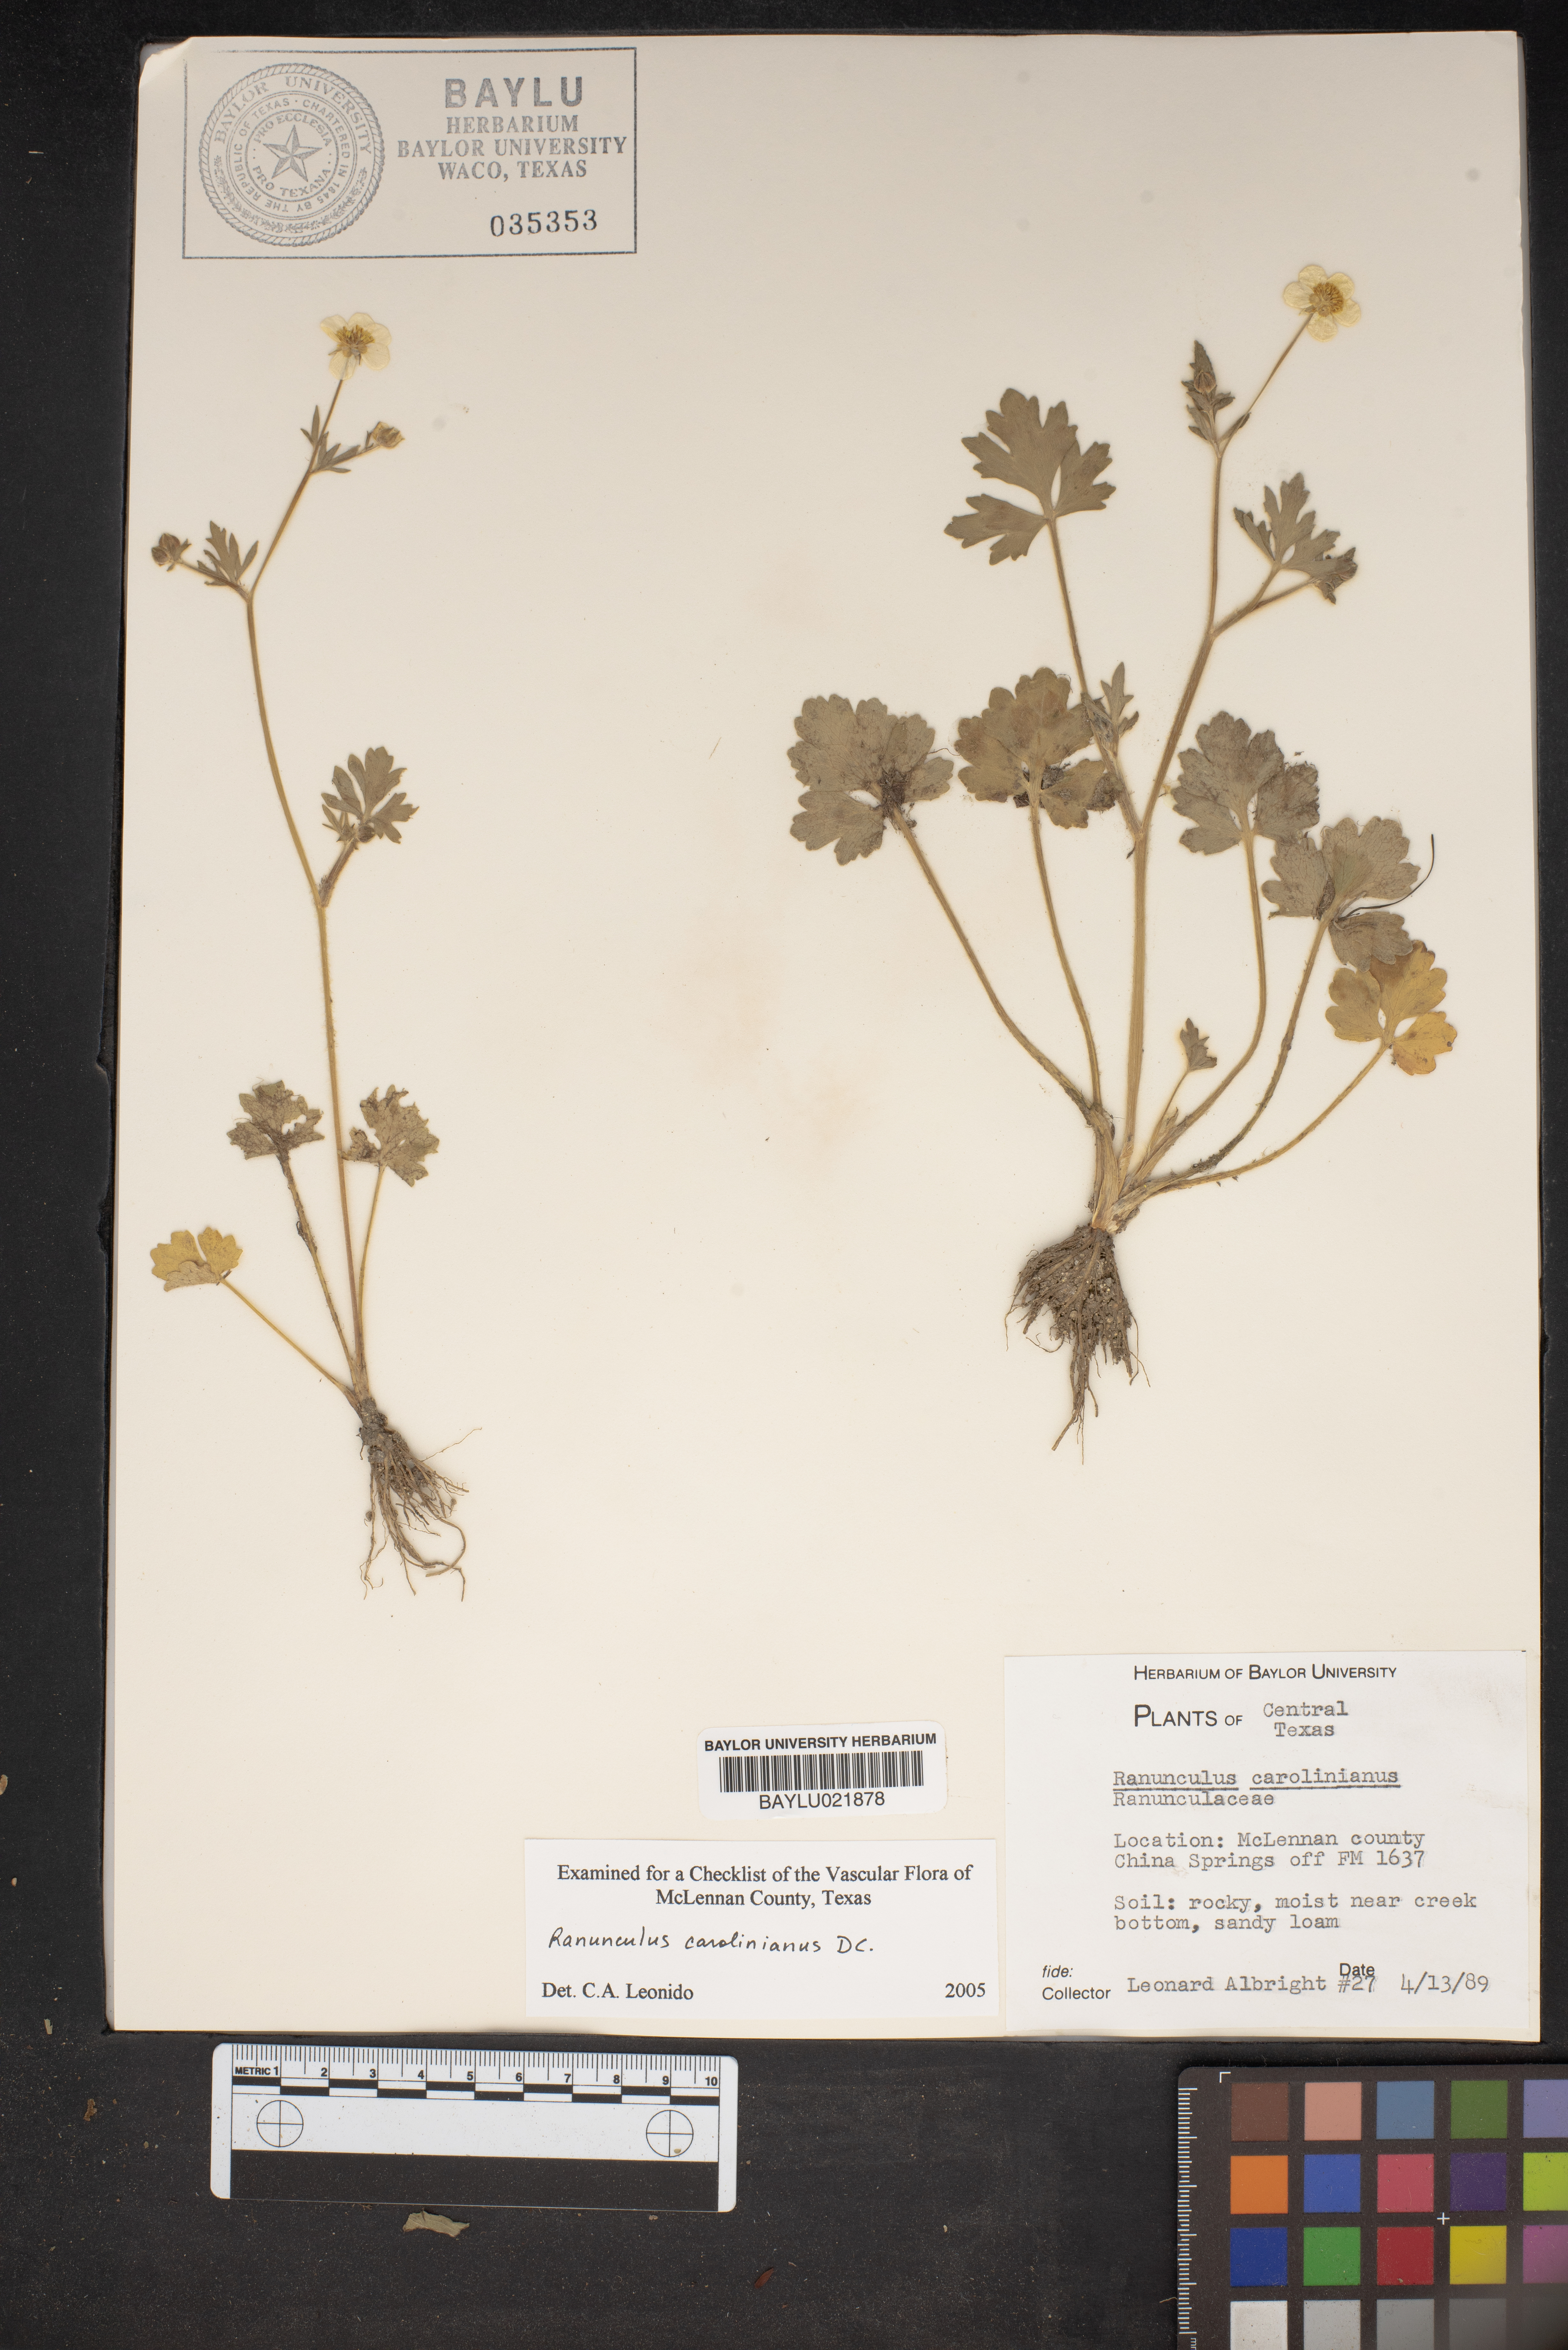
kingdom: Plantae
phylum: Tracheophyta
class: Magnoliopsida
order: Ranunculales
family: Ranunculaceae
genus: Ranunculus
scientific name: Ranunculus hispidus
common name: Bristly buttercup
